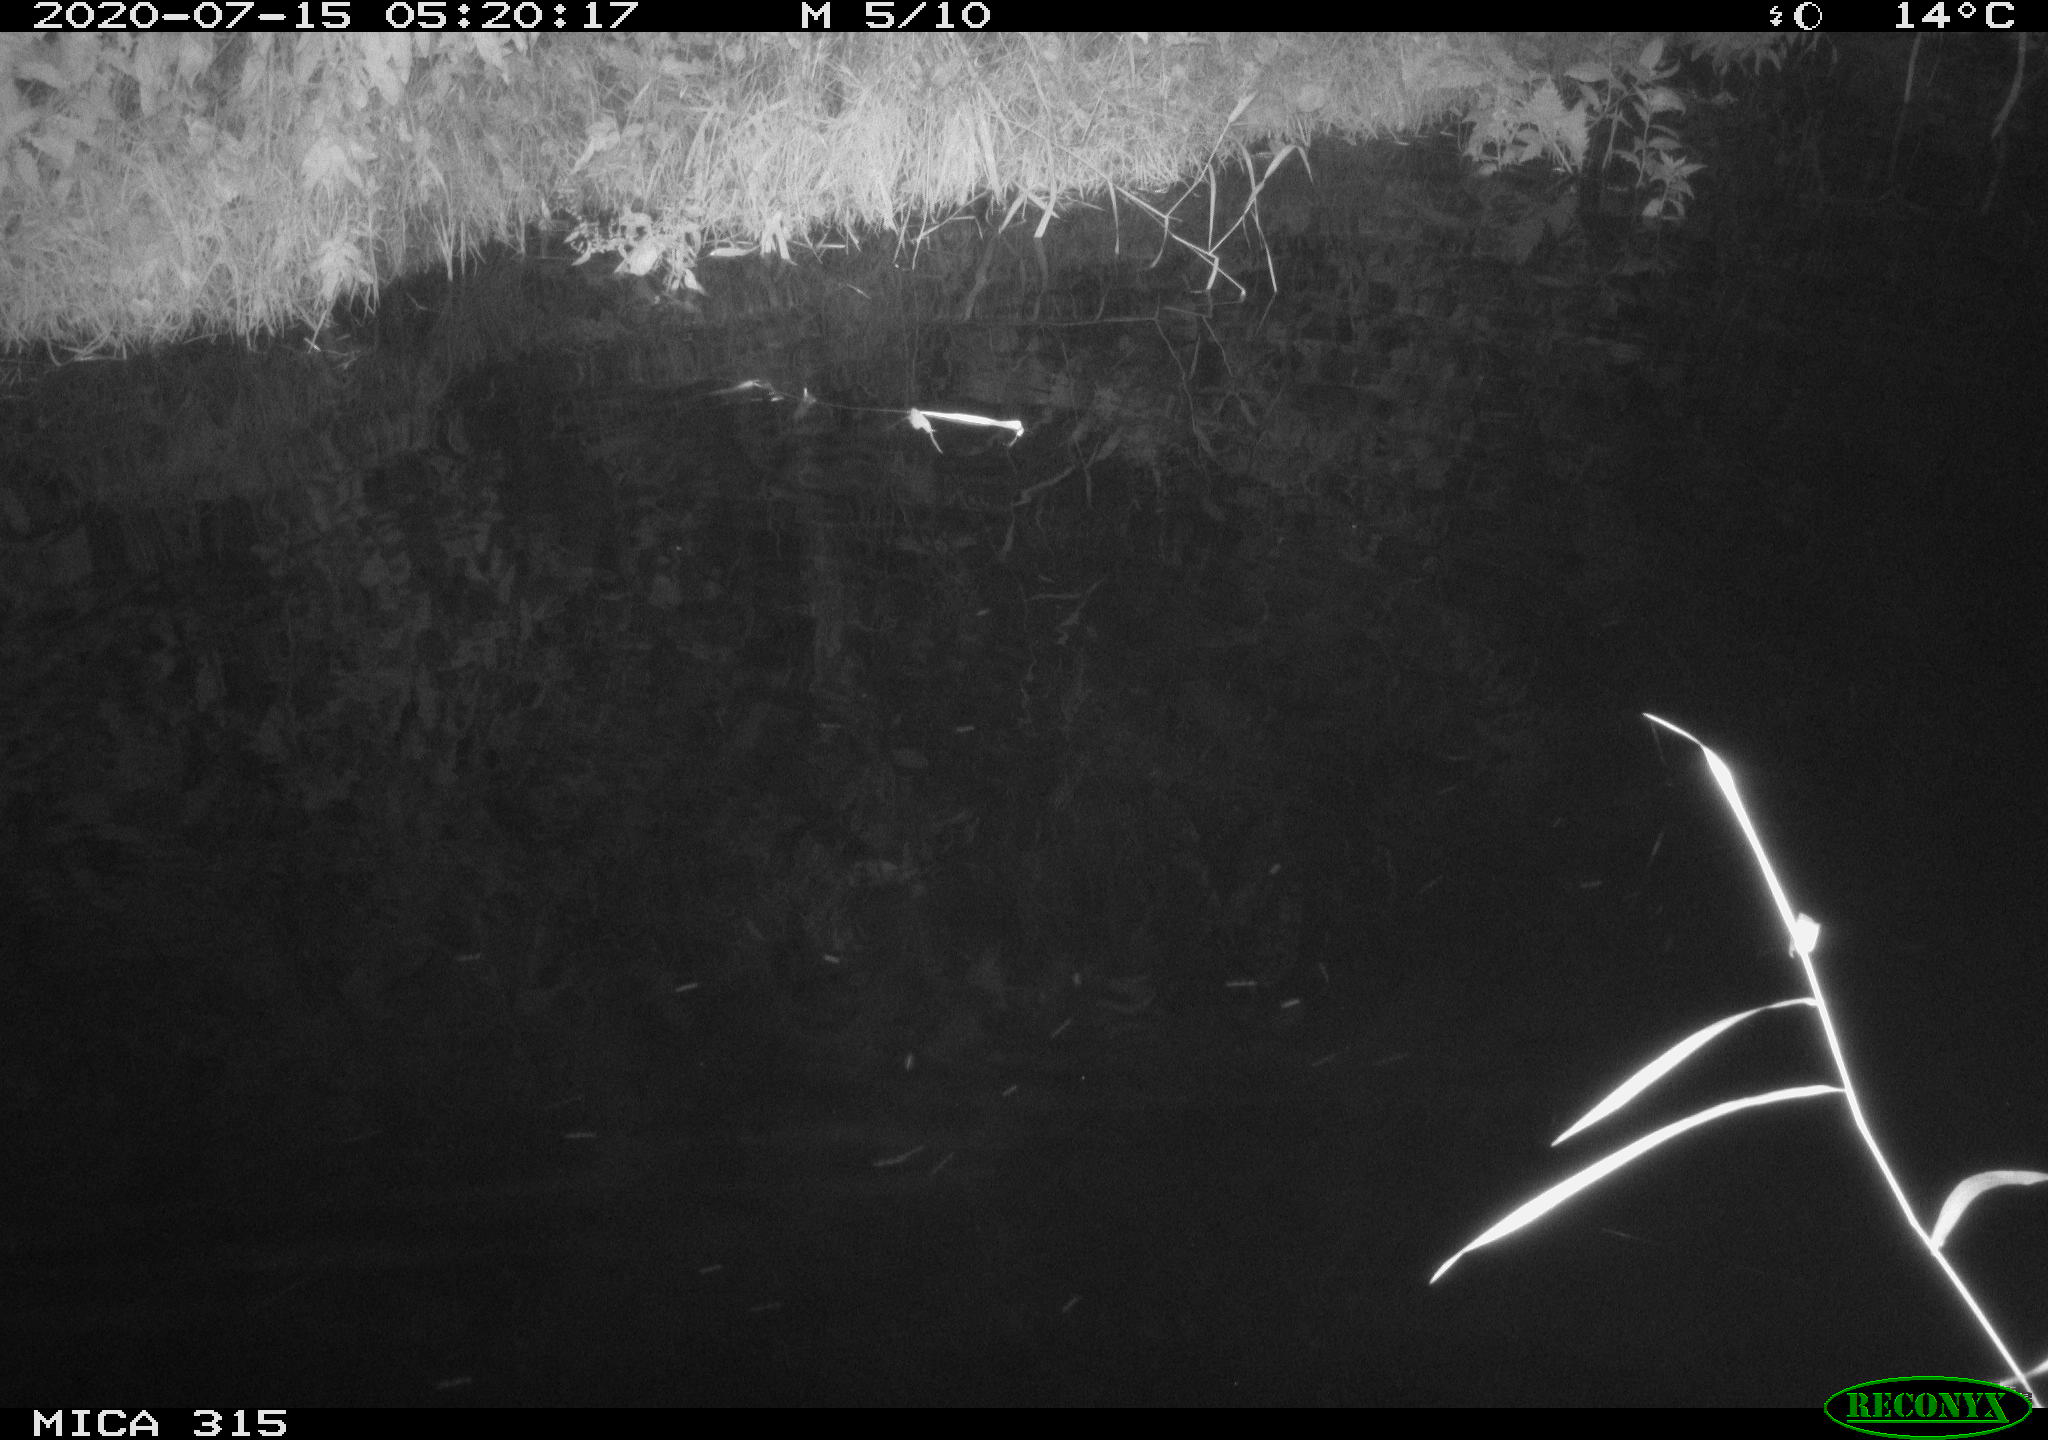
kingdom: Animalia
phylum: Chordata
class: Aves
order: Anseriformes
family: Anatidae
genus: Anas
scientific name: Anas platyrhynchos
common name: Mallard
